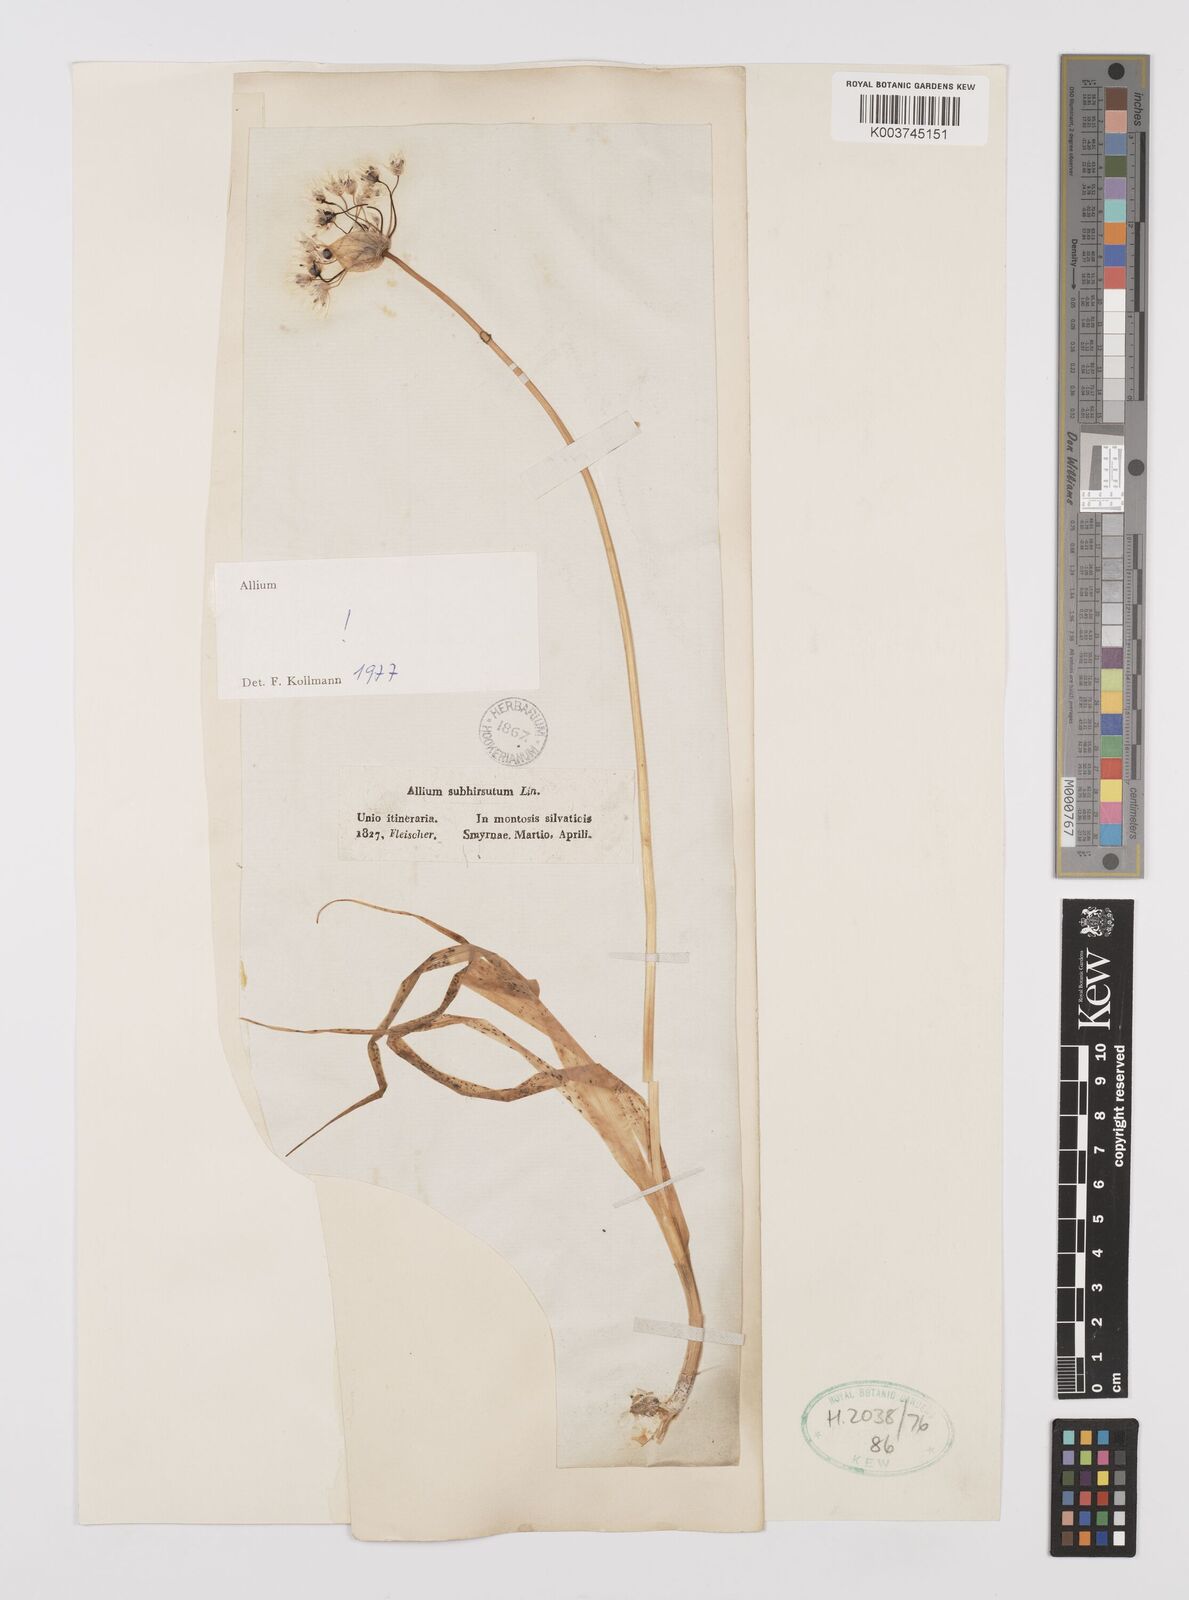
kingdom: Plantae
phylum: Tracheophyta
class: Liliopsida
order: Asparagales
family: Amaryllidaceae
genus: Allium
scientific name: Allium subhirsutum
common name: Hairy garlic
